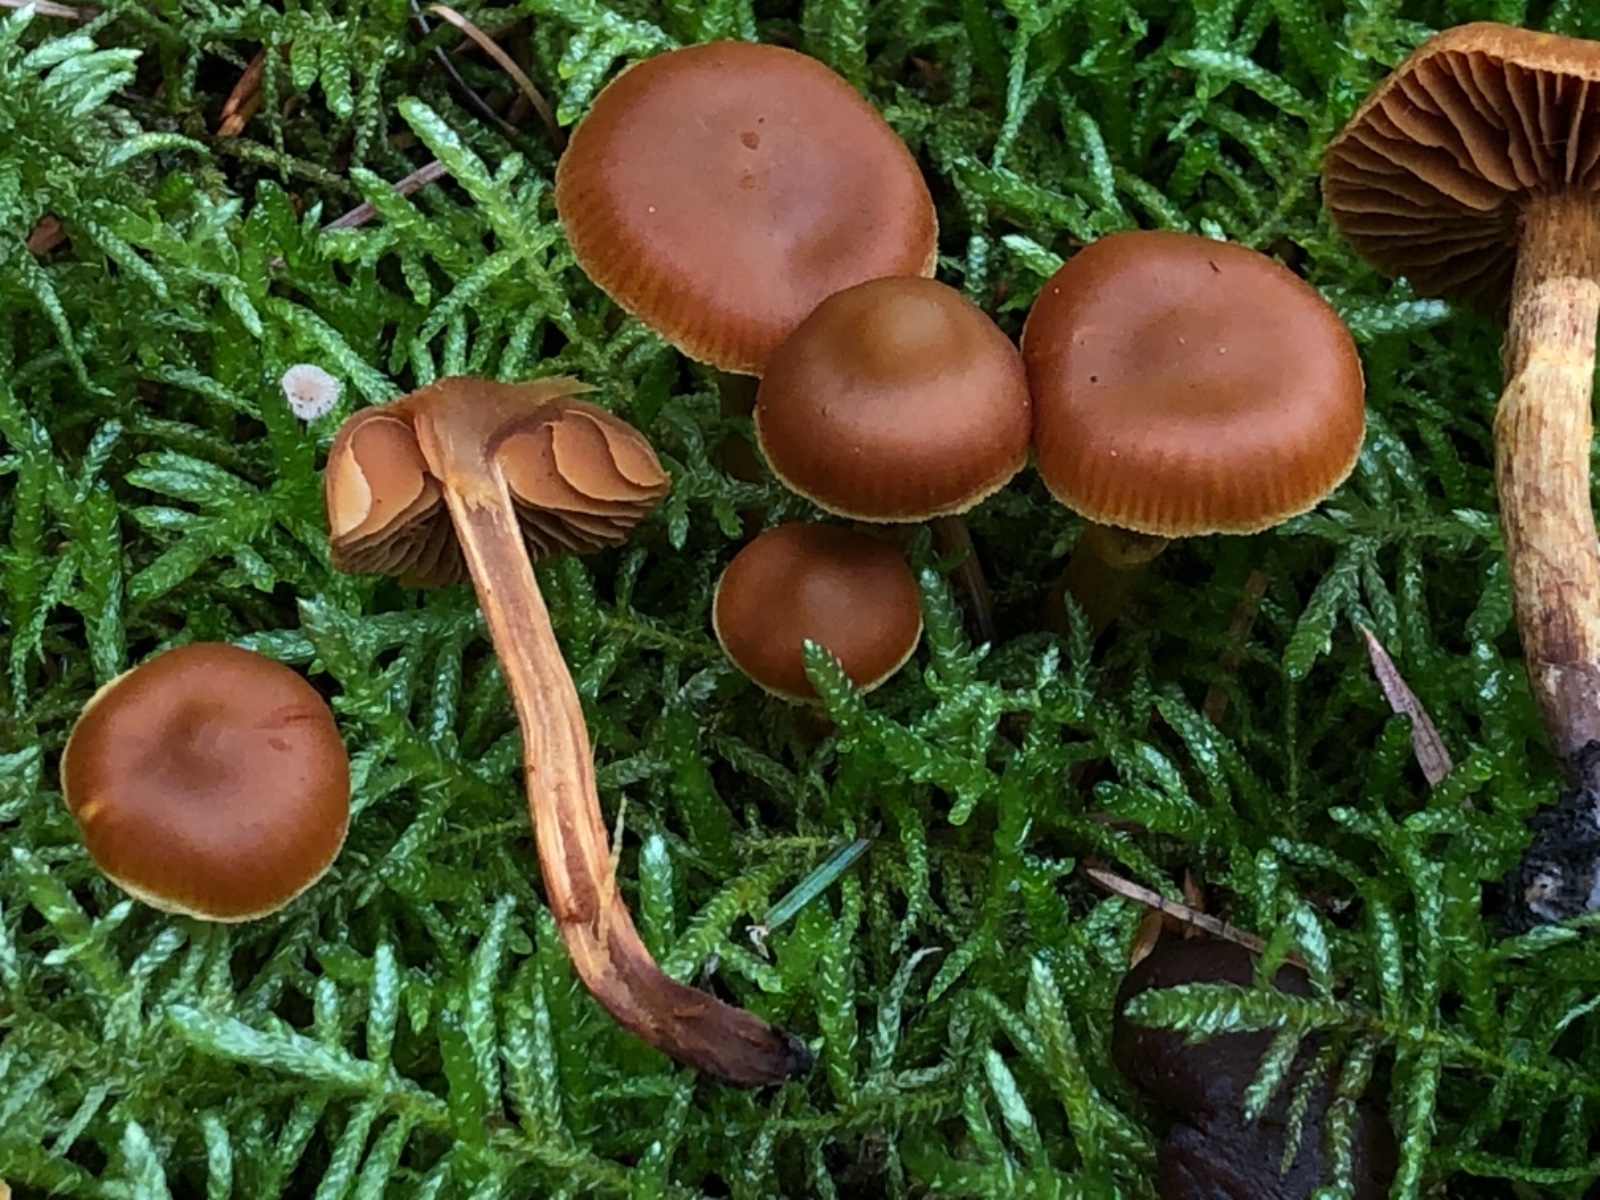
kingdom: Fungi
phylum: Basidiomycota
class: Agaricomycetes
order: Agaricales
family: Cortinariaceae
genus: Cortinarius
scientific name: Cortinarius gentilis
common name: bæltet slørhat
